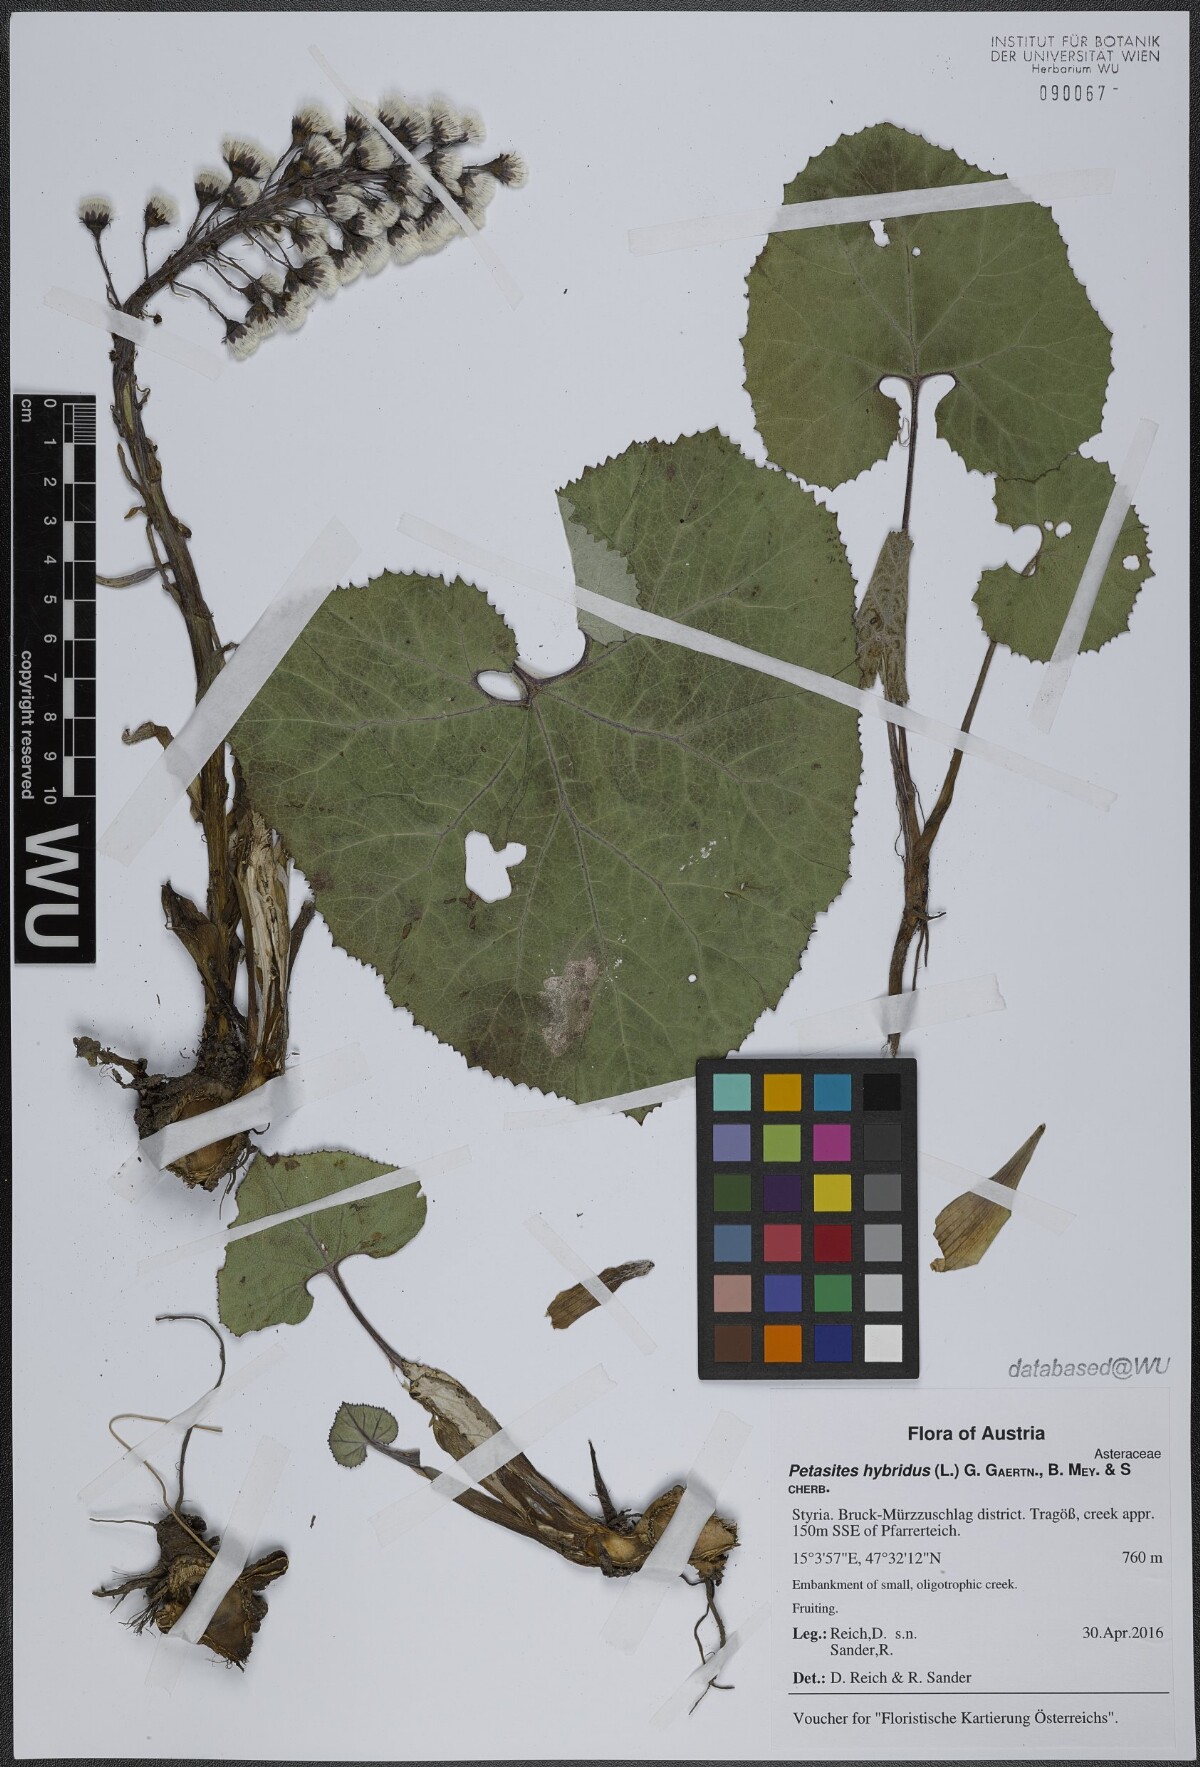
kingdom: Plantae
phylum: Tracheophyta
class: Magnoliopsida
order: Asterales
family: Asteraceae
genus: Petasites
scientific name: Petasites hybridus
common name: Butterbur
